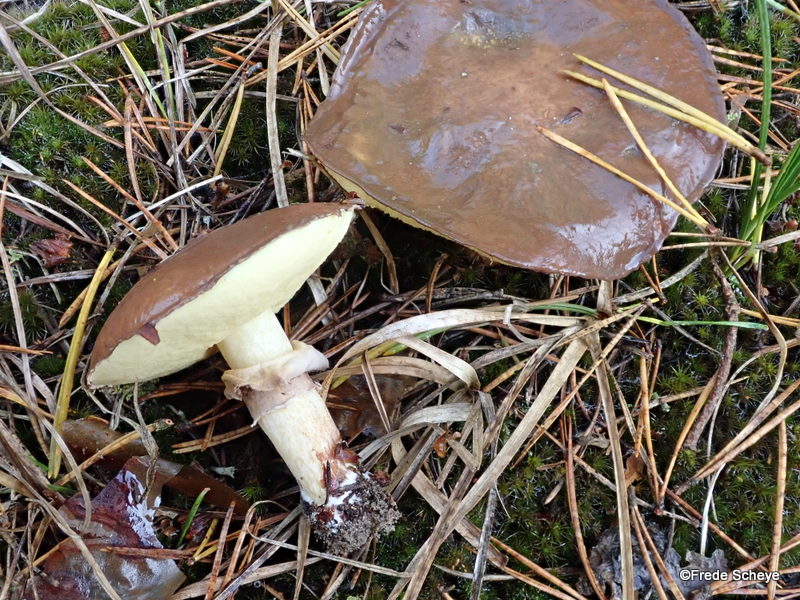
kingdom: Fungi
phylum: Basidiomycota
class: Agaricomycetes
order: Boletales
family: Suillaceae
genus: Suillus
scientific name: Suillus luteus
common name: brungul slimrørhat
